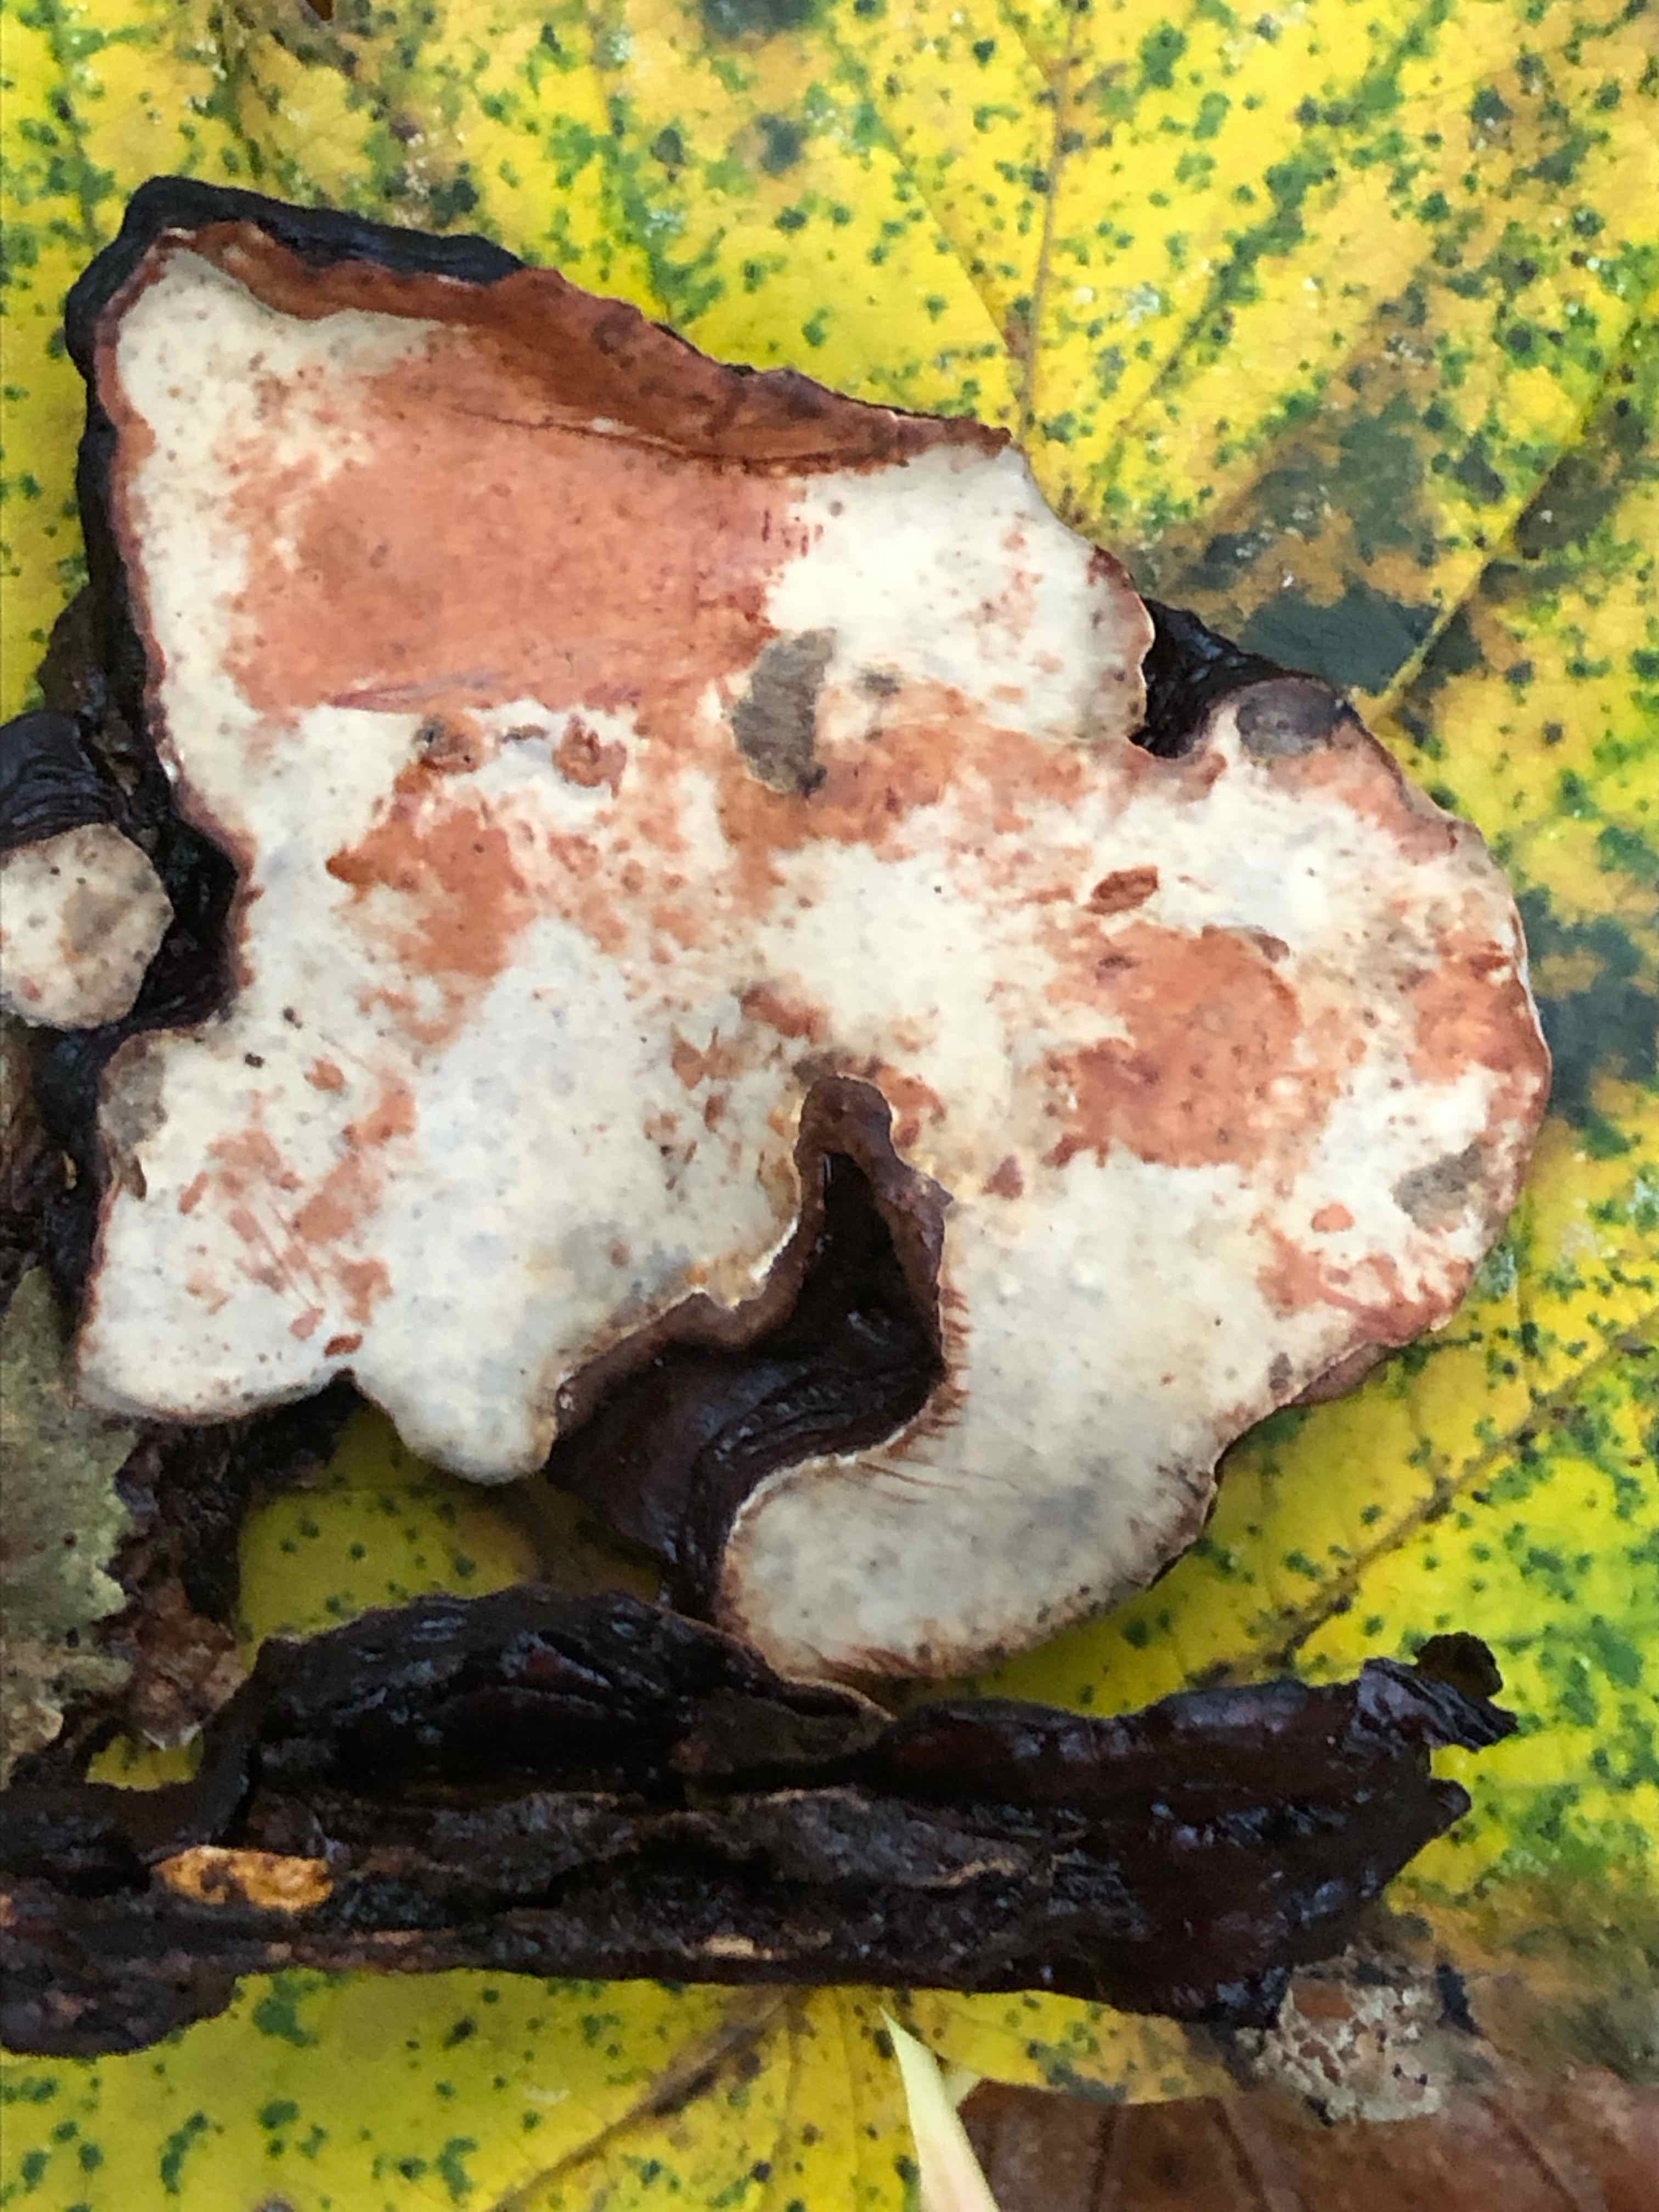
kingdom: Fungi
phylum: Basidiomycota
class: Agaricomycetes
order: Russulales
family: Stereaceae
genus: Stereum
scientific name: Stereum rugosum
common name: rynket lædersvamp
